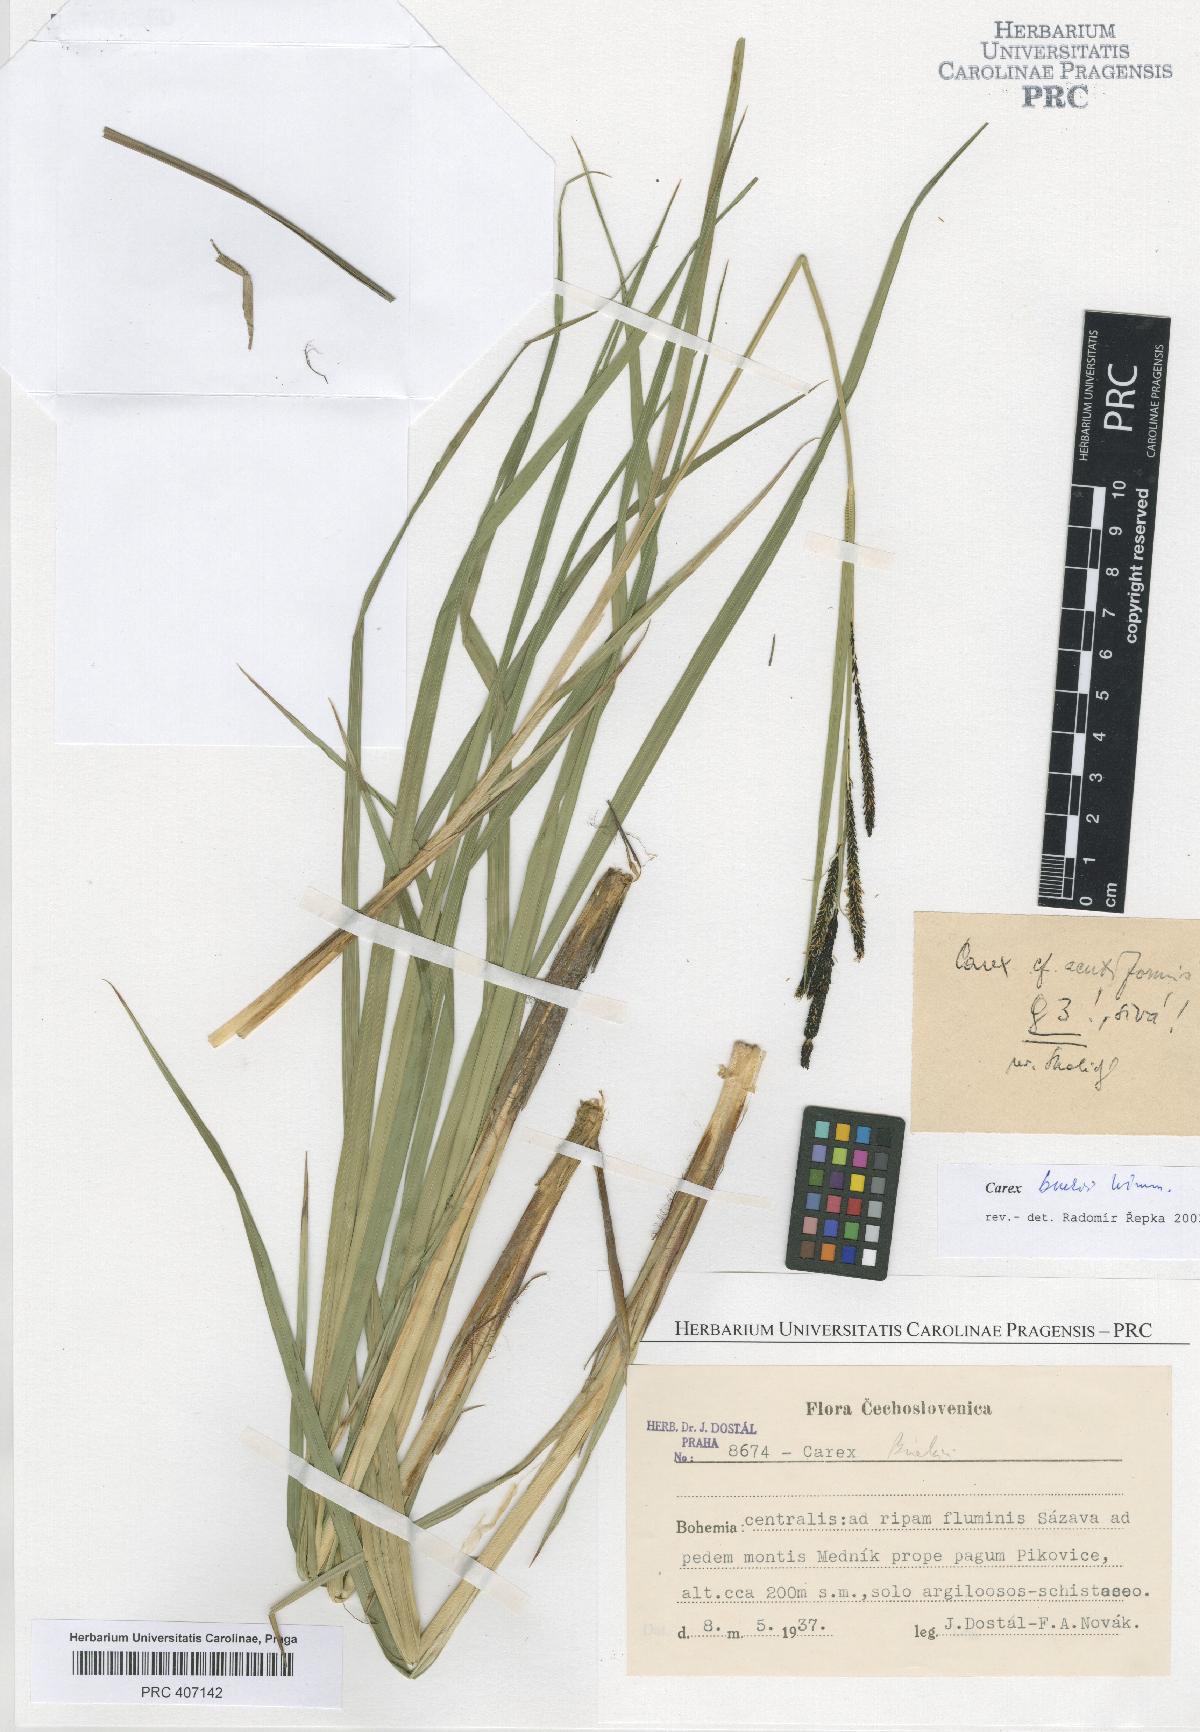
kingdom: Plantae
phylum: Tracheophyta
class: Liliopsida
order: Poales
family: Cyperaceae
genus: Carex
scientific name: Carex buekii
